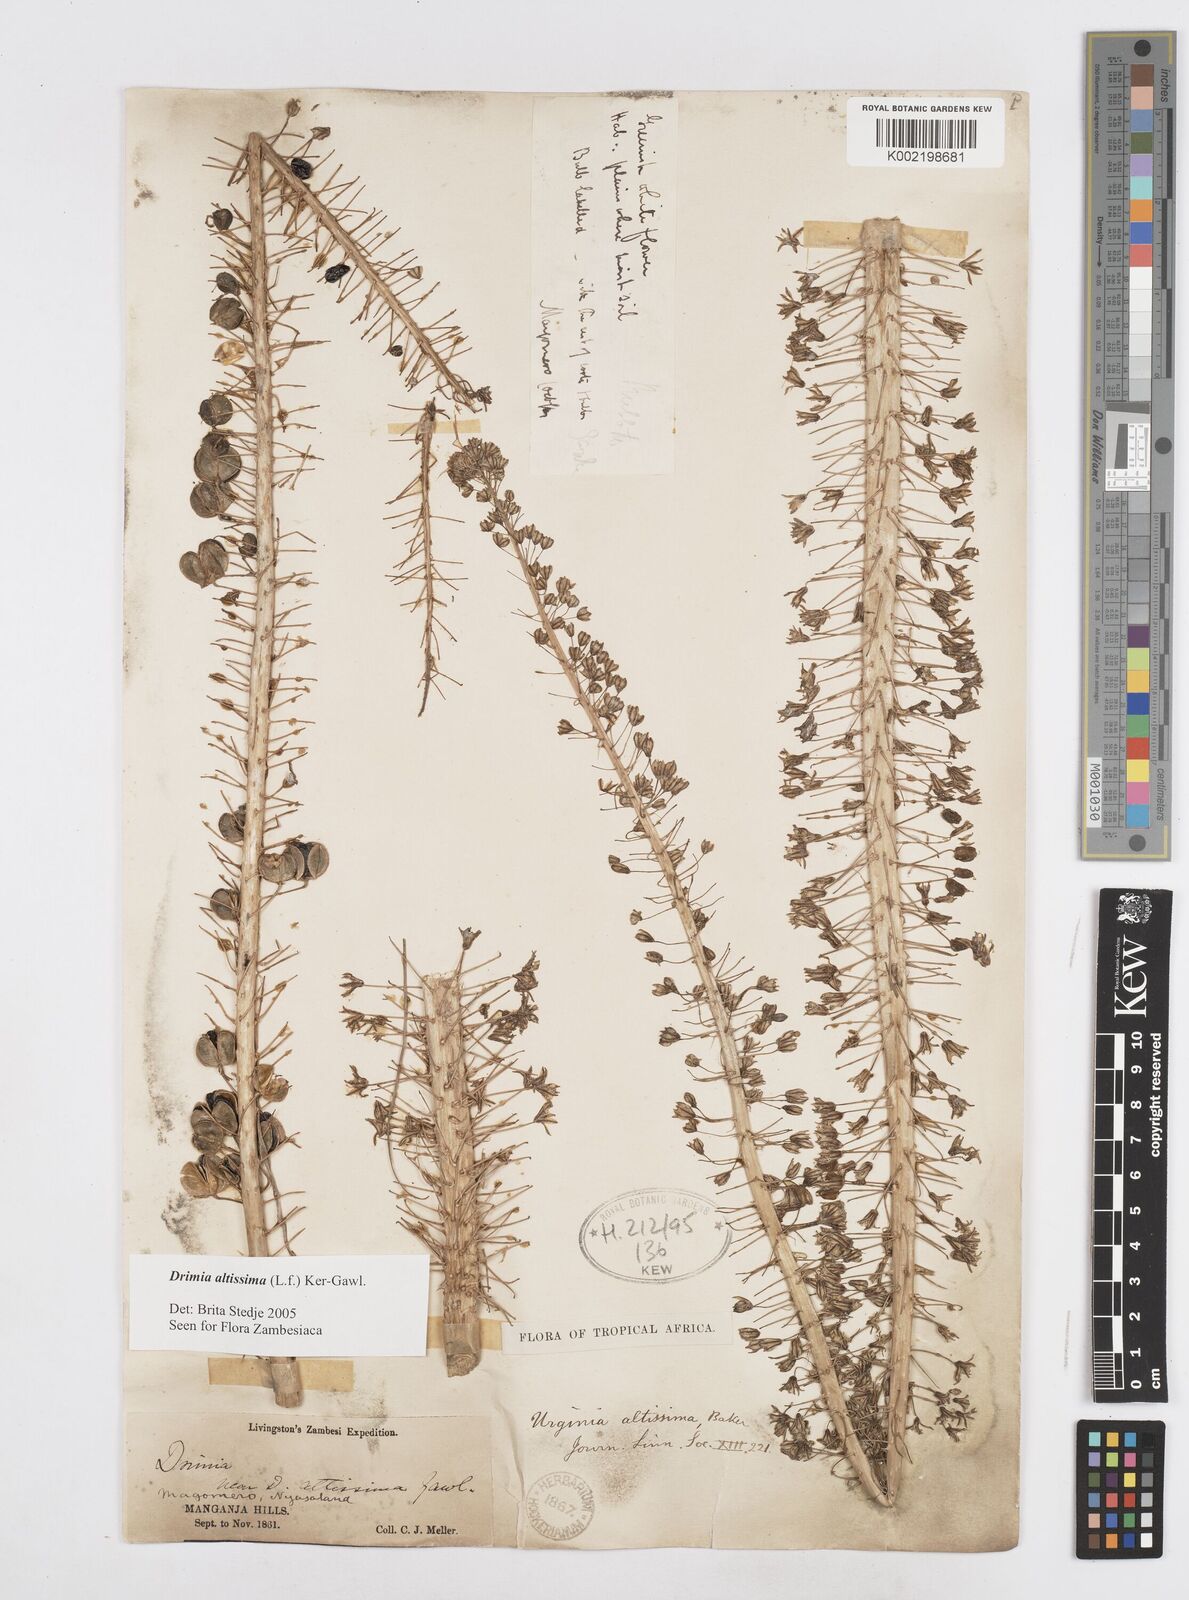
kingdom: Plantae
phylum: Tracheophyta
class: Liliopsida
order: Asparagales
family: Asparagaceae
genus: Drimia
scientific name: Drimia altissima
